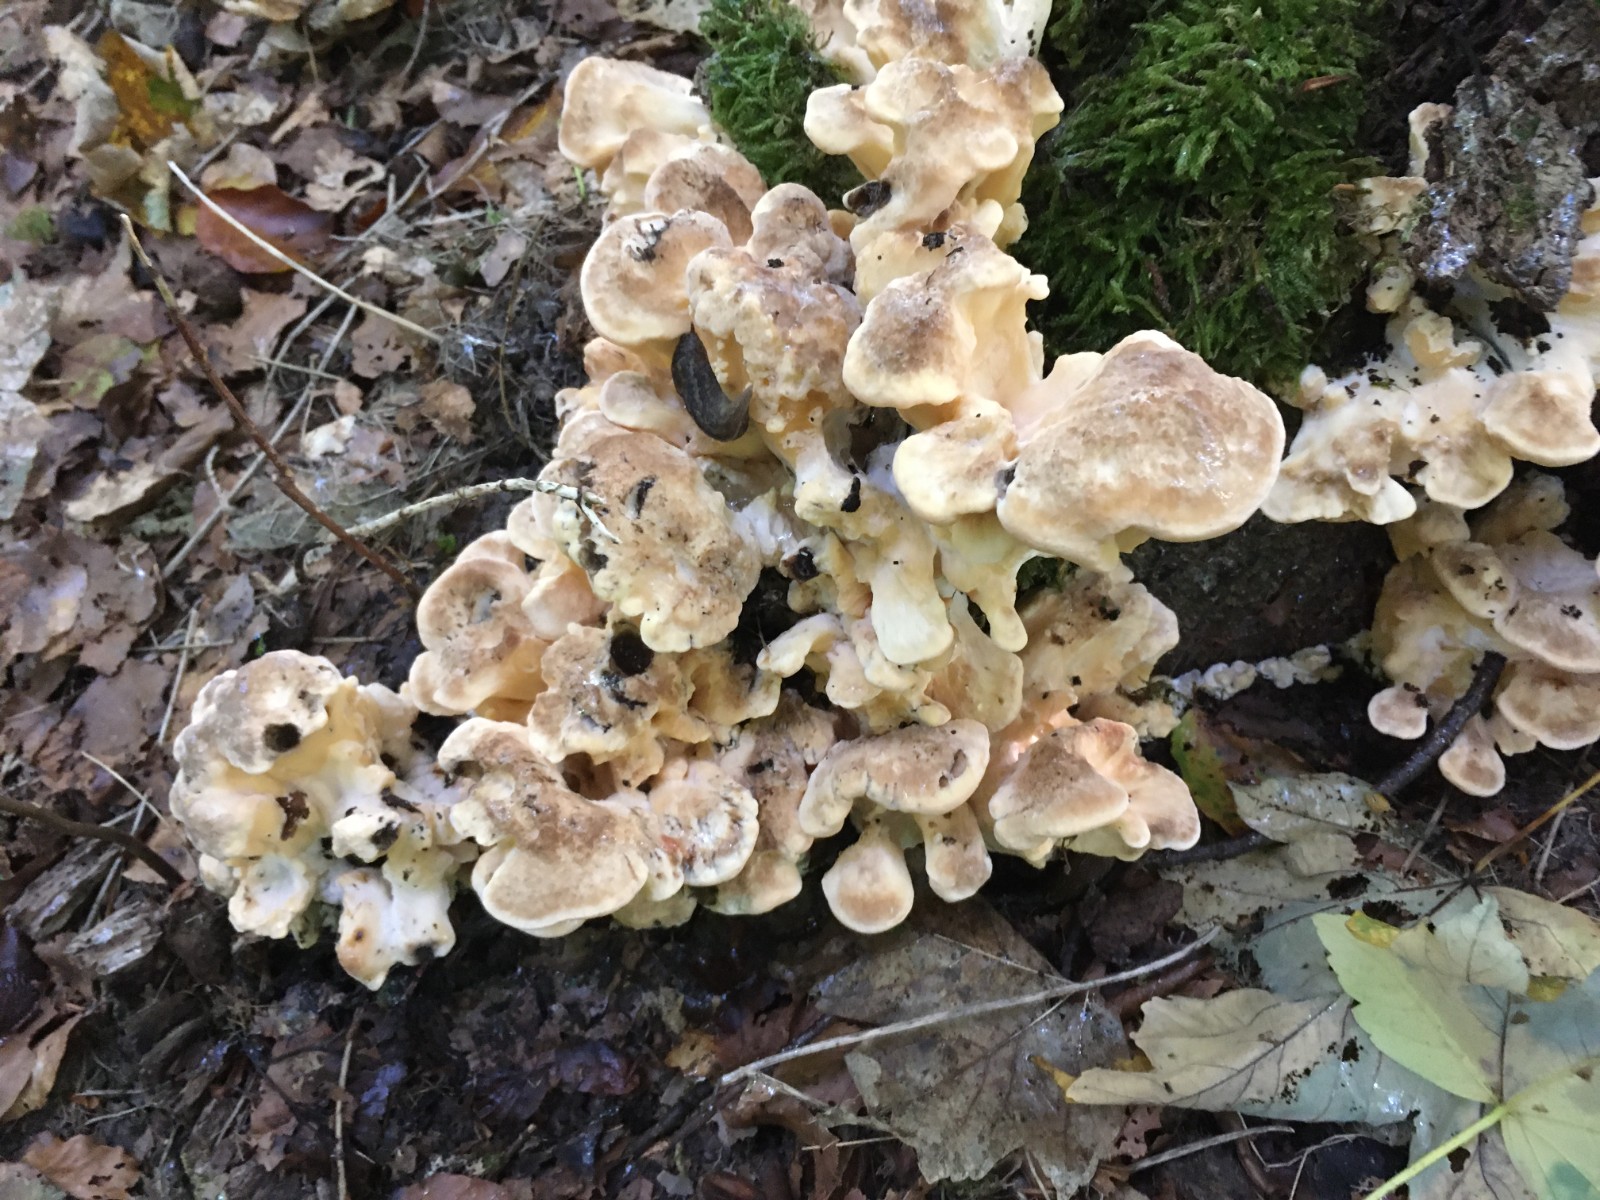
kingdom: Fungi
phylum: Basidiomycota
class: Agaricomycetes
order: Polyporales
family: Meripilaceae
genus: Meripilus
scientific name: Meripilus giganteus
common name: kæmpeporesvamp
